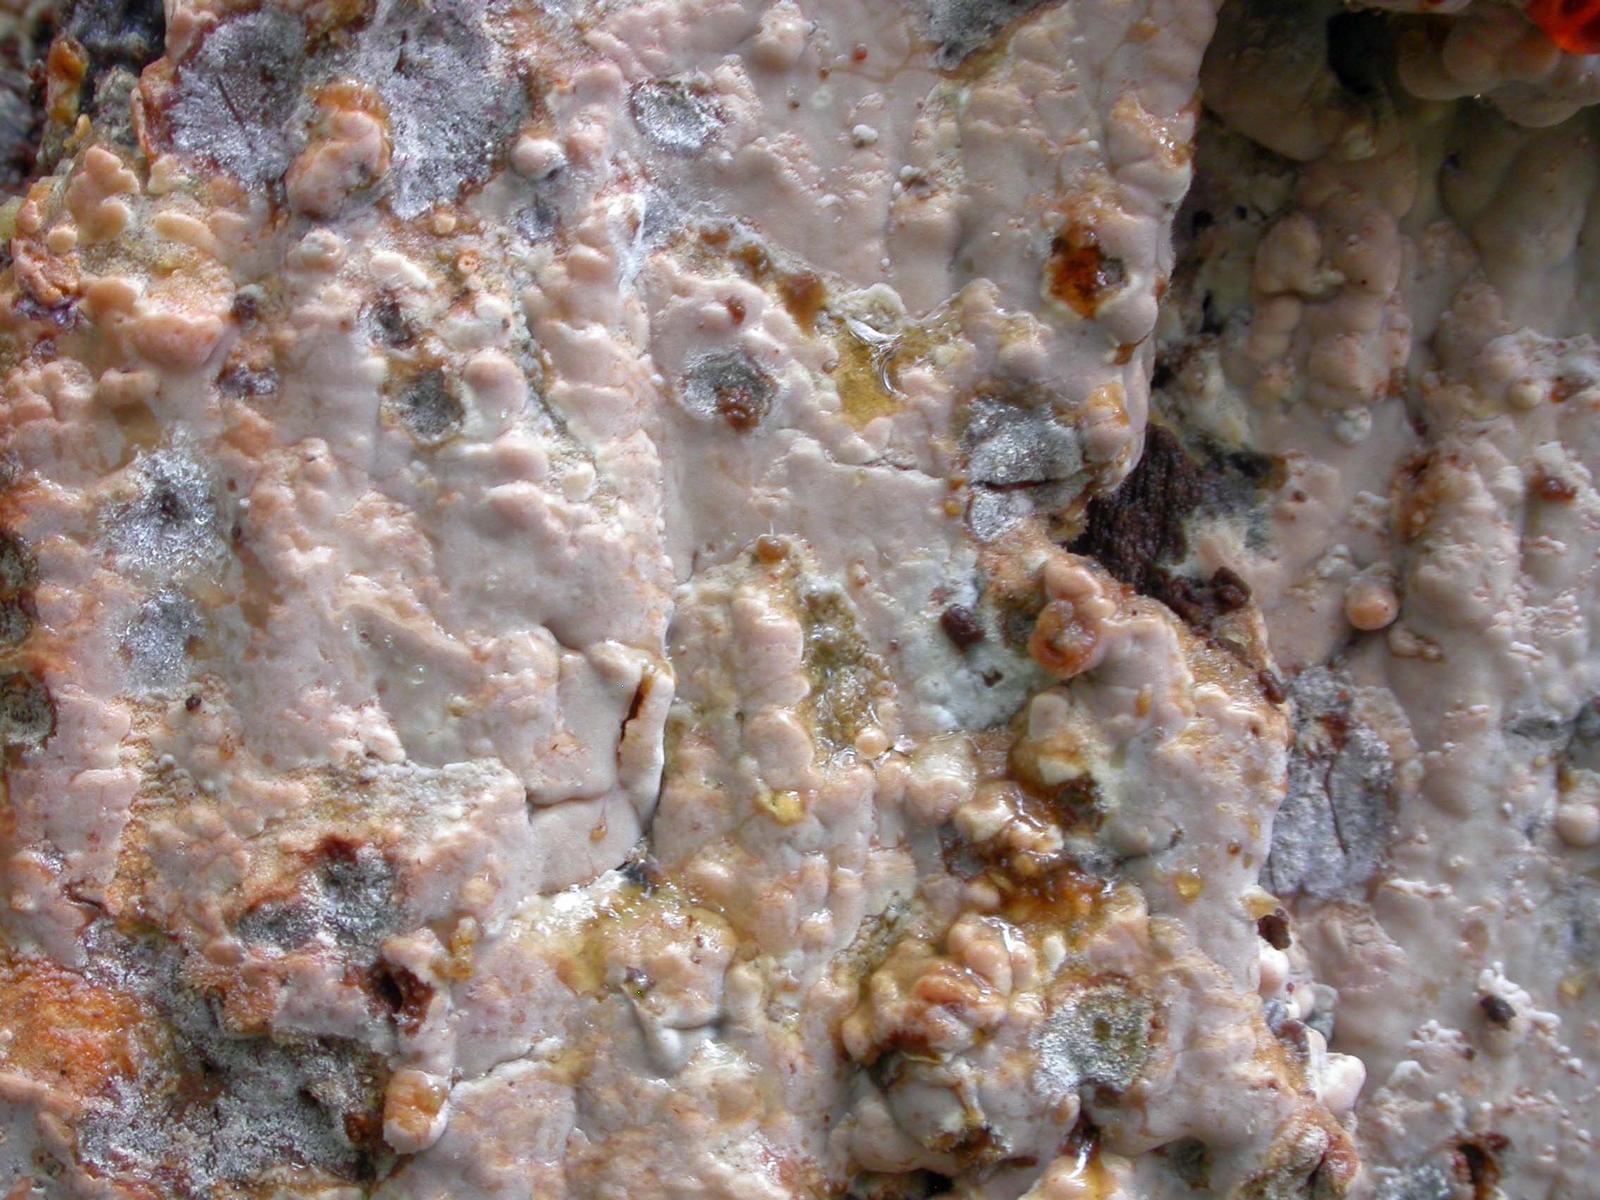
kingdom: Fungi
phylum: Basidiomycota
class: Agaricomycetes
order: Russulales
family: Peniophoraceae
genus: Gloiothele
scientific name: Gloiothele lactescens
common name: bitter olieskind
